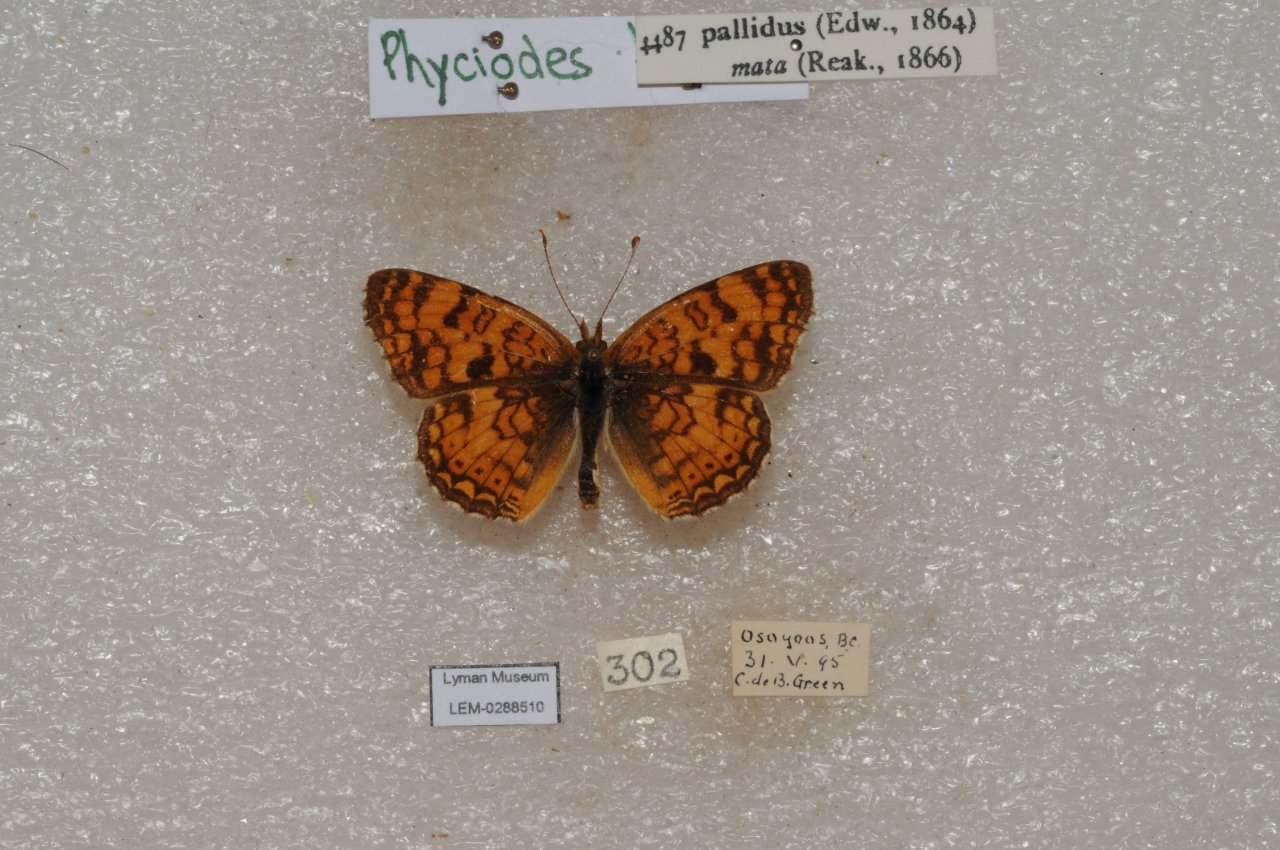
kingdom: Animalia
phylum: Arthropoda
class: Insecta
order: Lepidoptera
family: Nymphalidae
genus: Phyciodes
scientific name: Phyciodes pallida
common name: Pale Crescent
